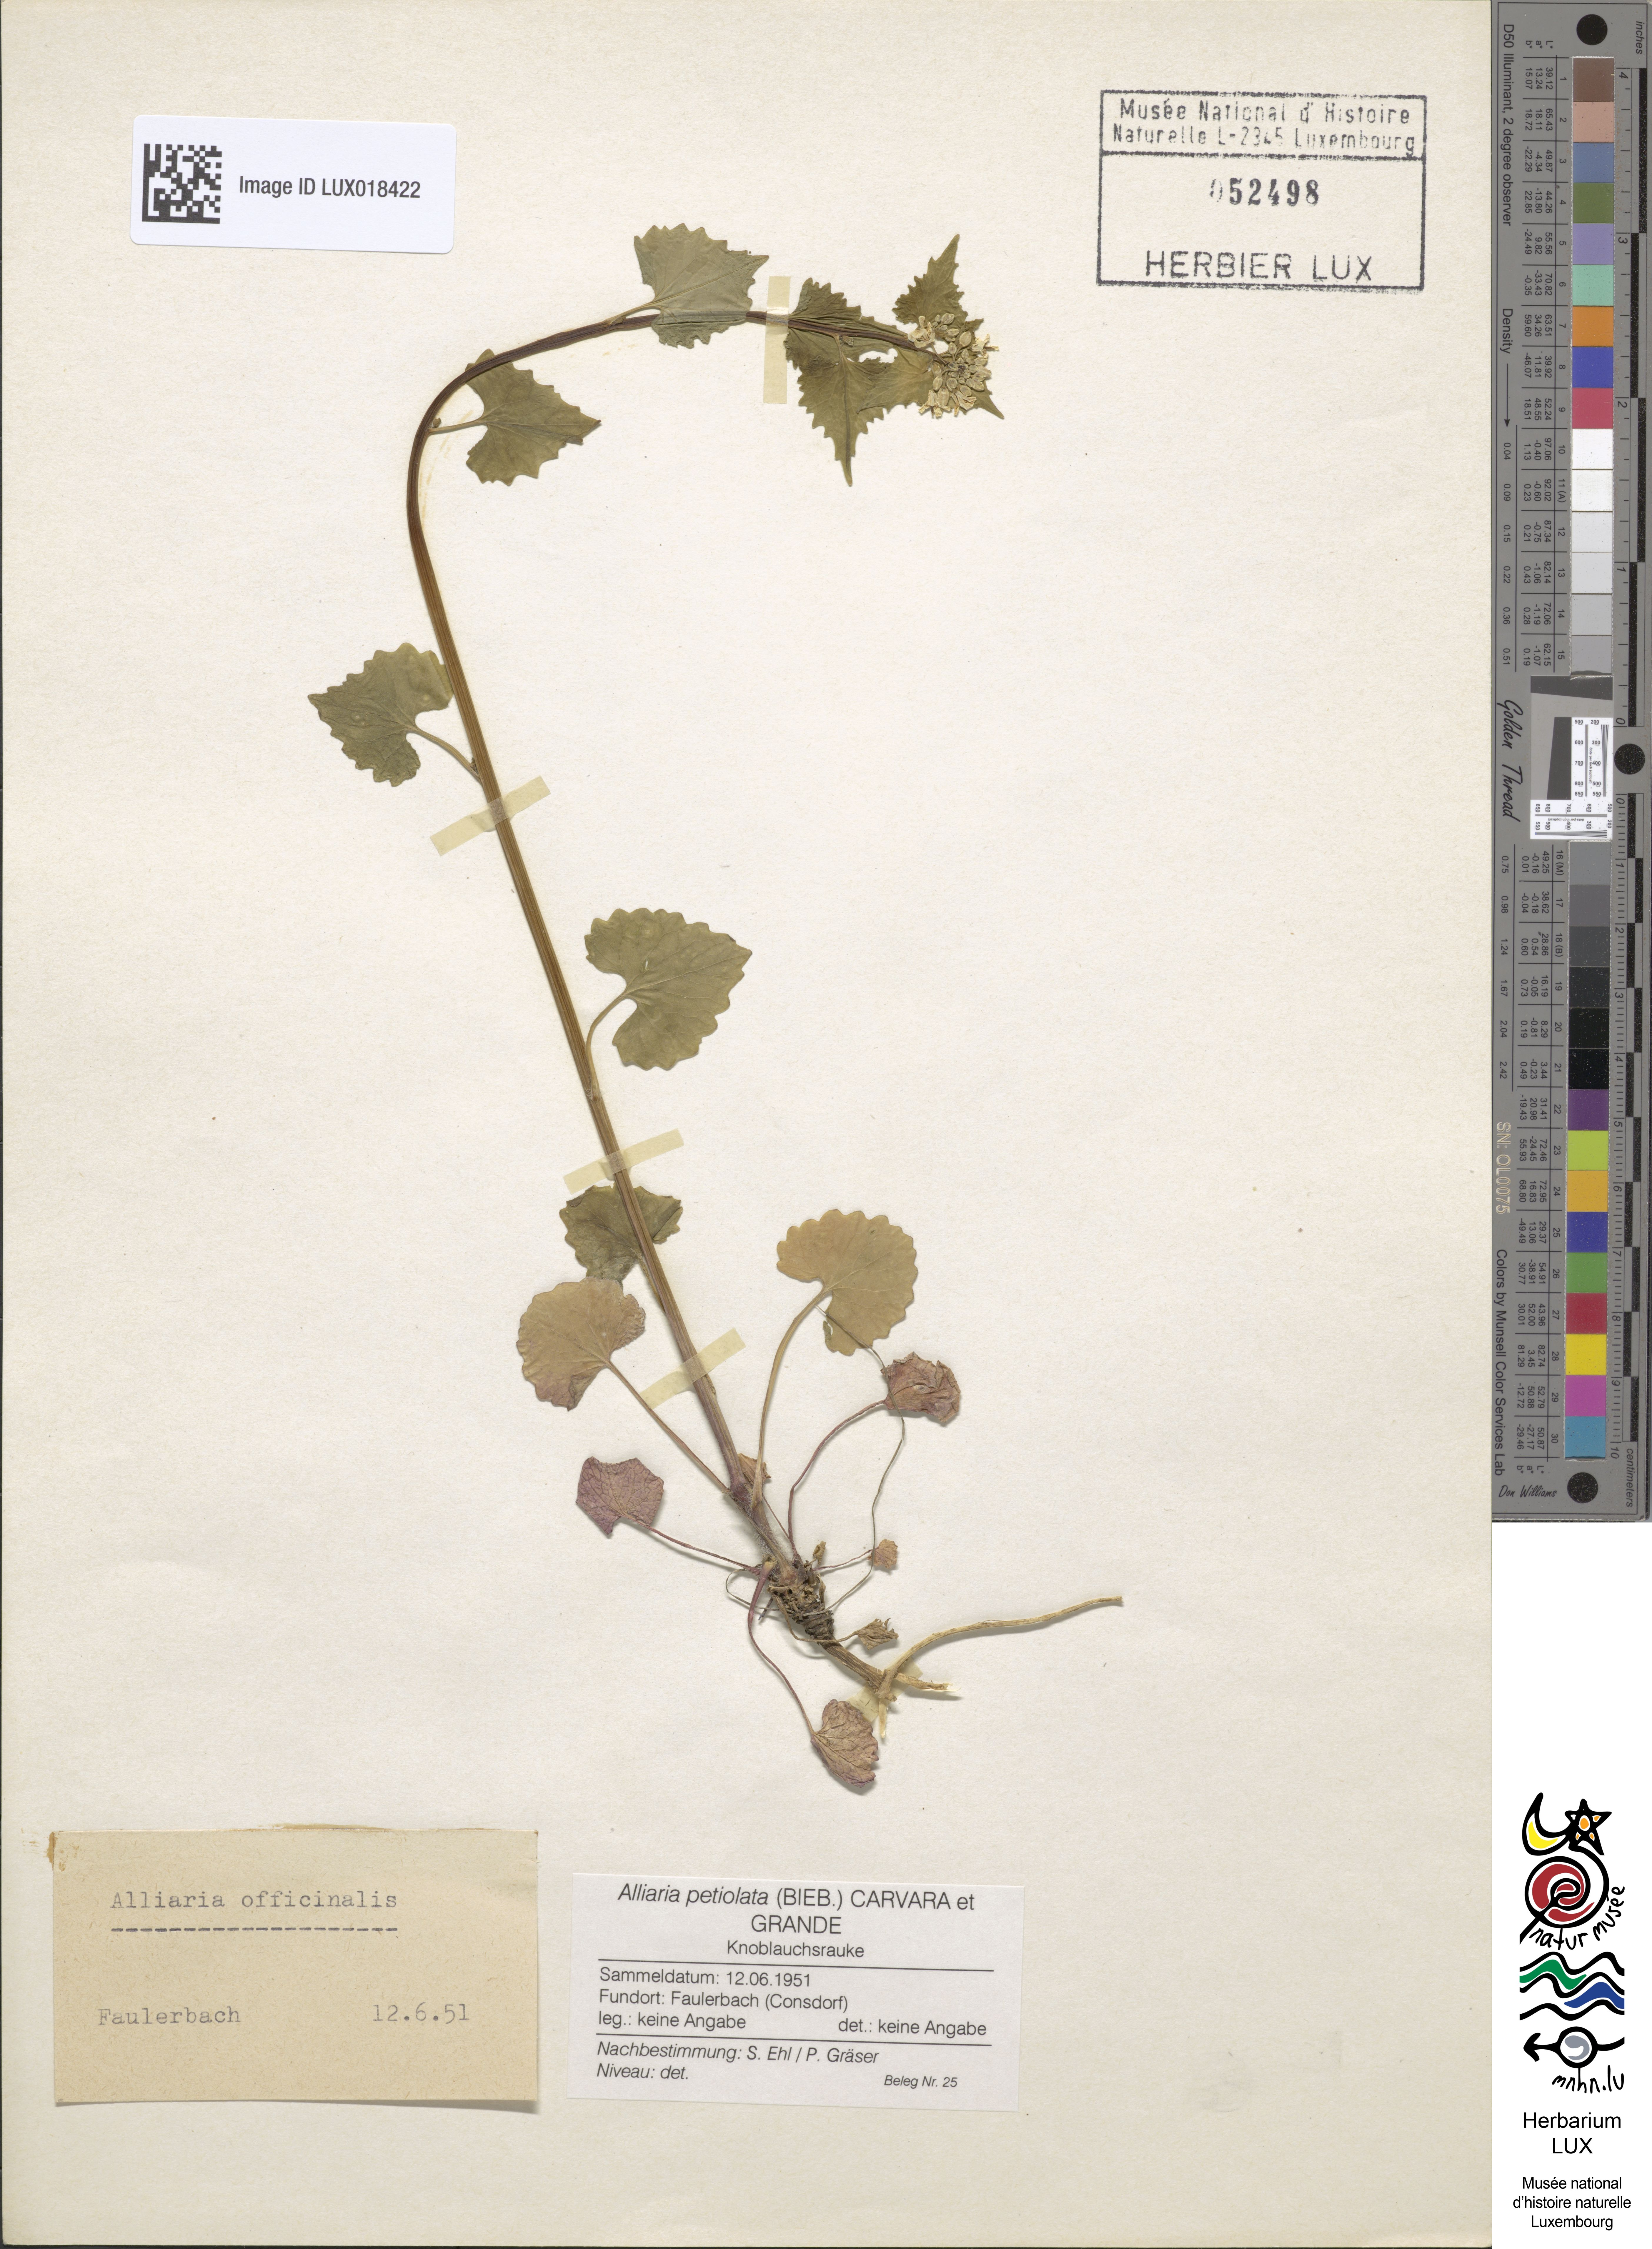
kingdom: Plantae
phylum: Tracheophyta
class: Magnoliopsida
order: Brassicales
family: Brassicaceae
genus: Alliaria
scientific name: Alliaria petiolata
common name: Garlic mustard
